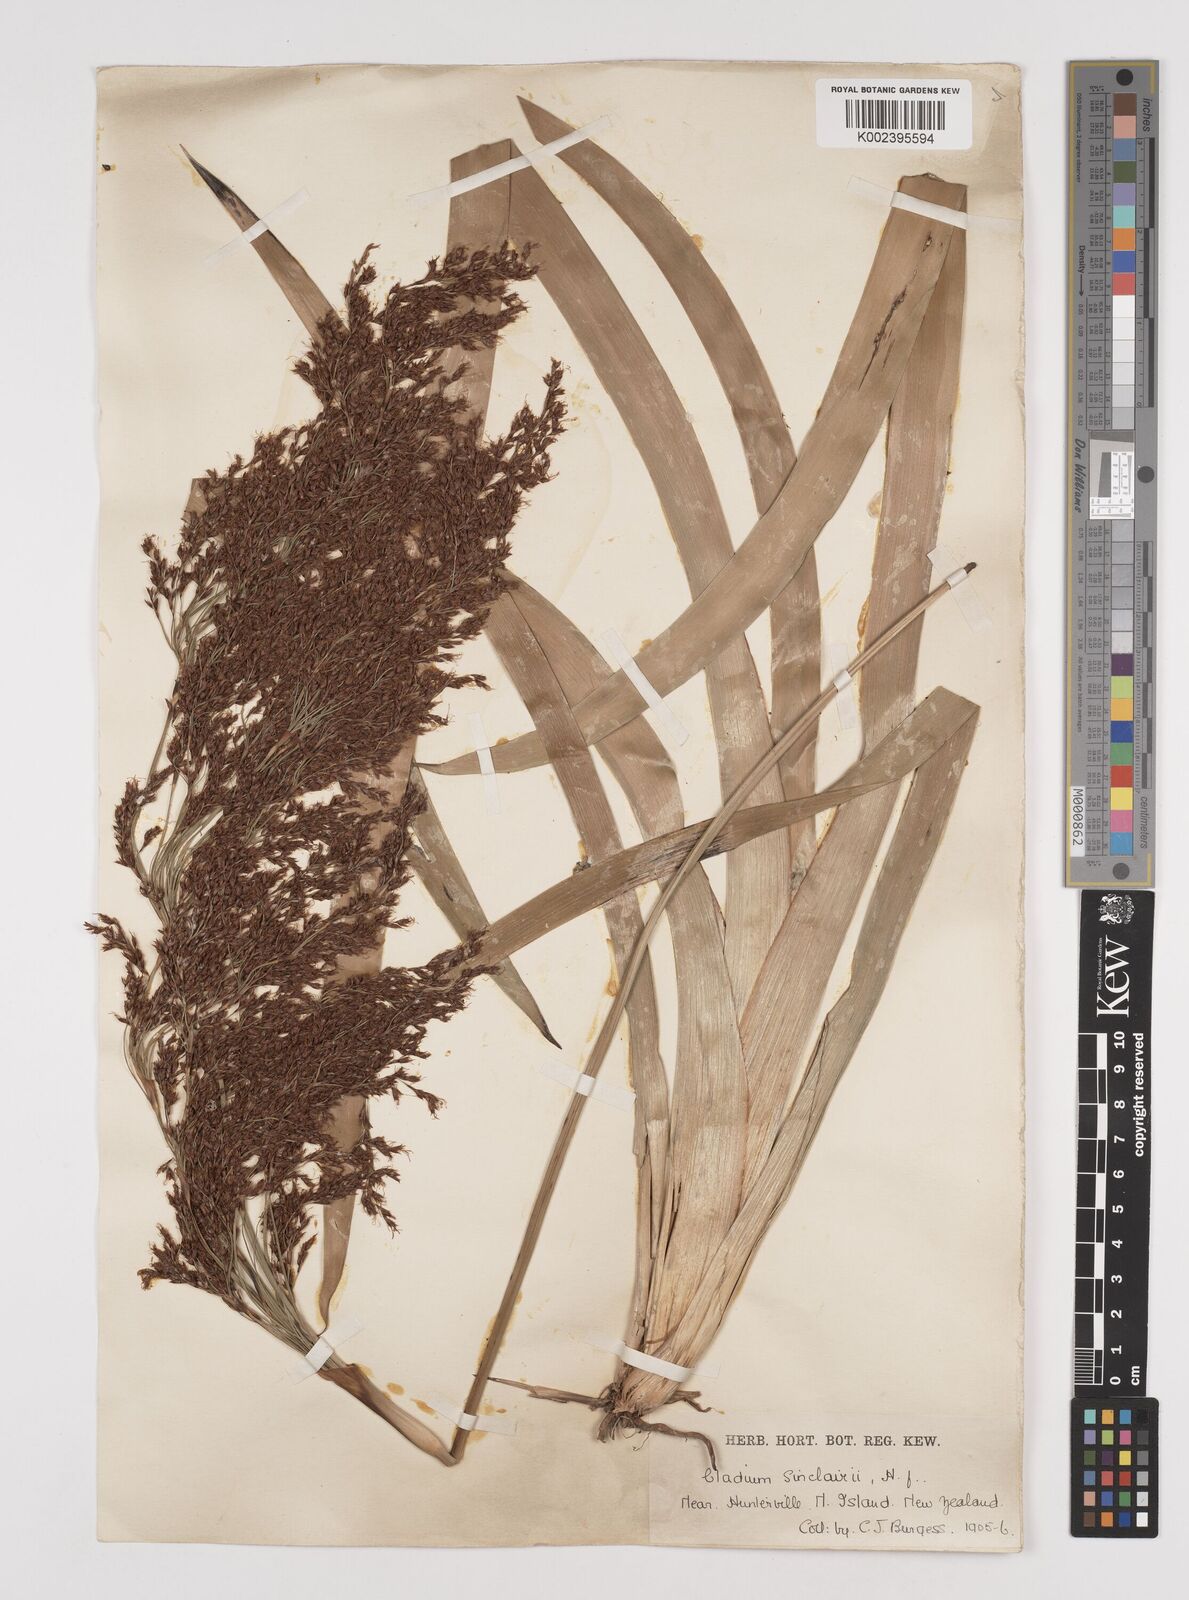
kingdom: Plantae
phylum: Tracheophyta
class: Liliopsida
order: Poales
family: Cyperaceae
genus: Machaerina
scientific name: Machaerina sinclairii
